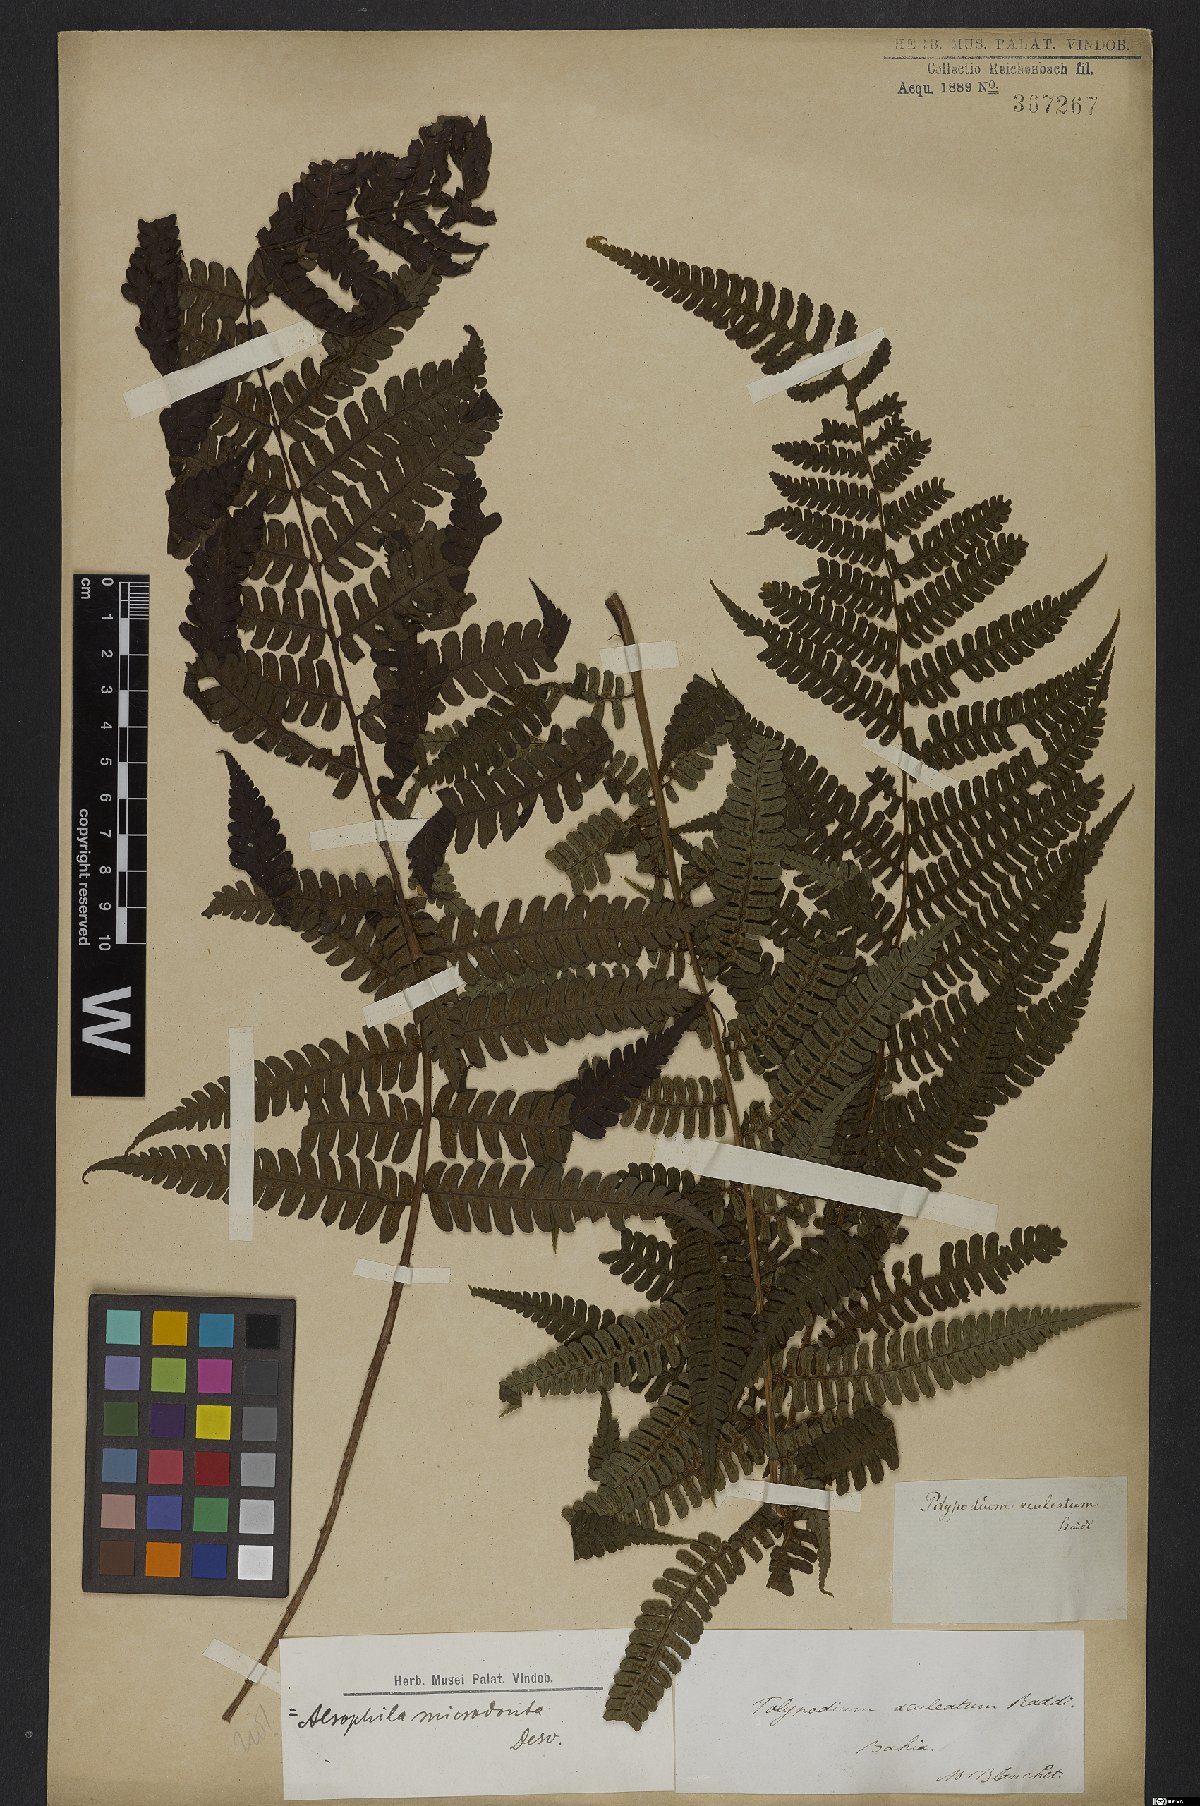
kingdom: Plantae
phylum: Tracheophyta
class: Polypodiopsida
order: Cyatheales
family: Cyatheaceae
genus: Cyathea
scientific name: Cyathea microdonta
